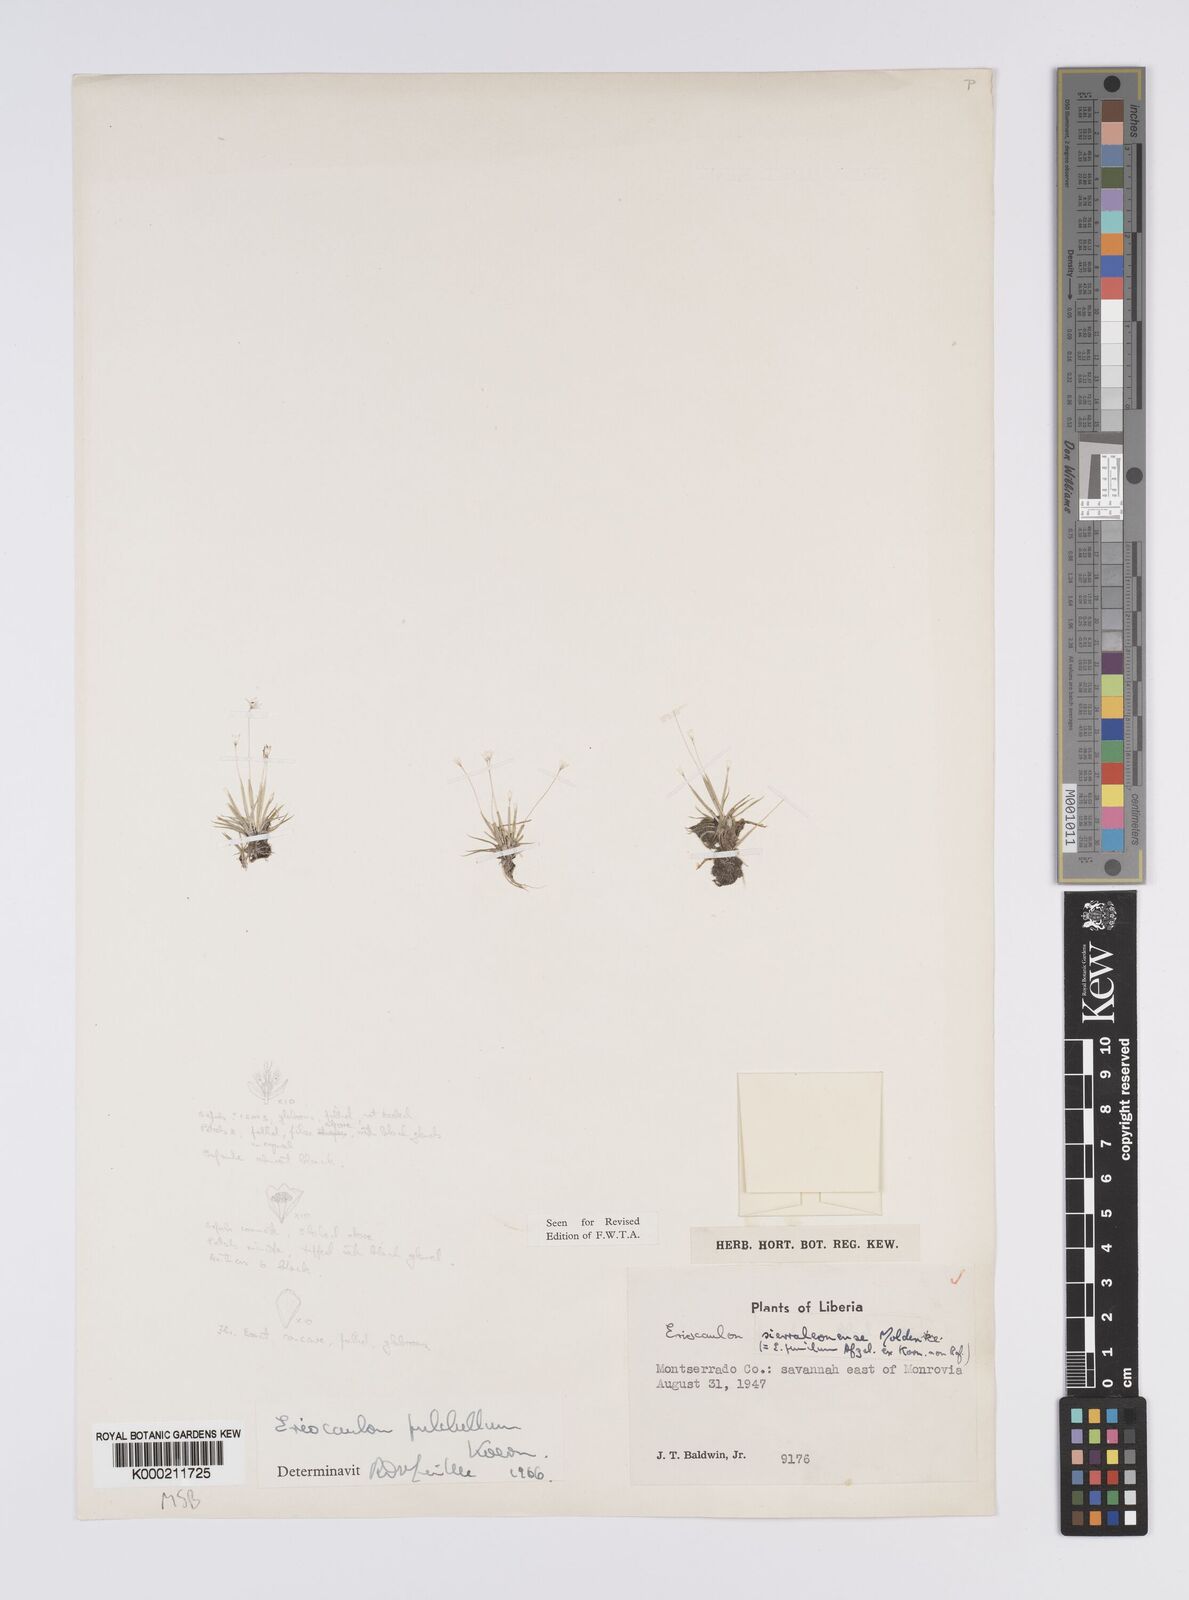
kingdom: Plantae
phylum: Tracheophyta
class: Liliopsida
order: Poales
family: Eriocaulaceae
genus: Eriocaulon
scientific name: Eriocaulon
